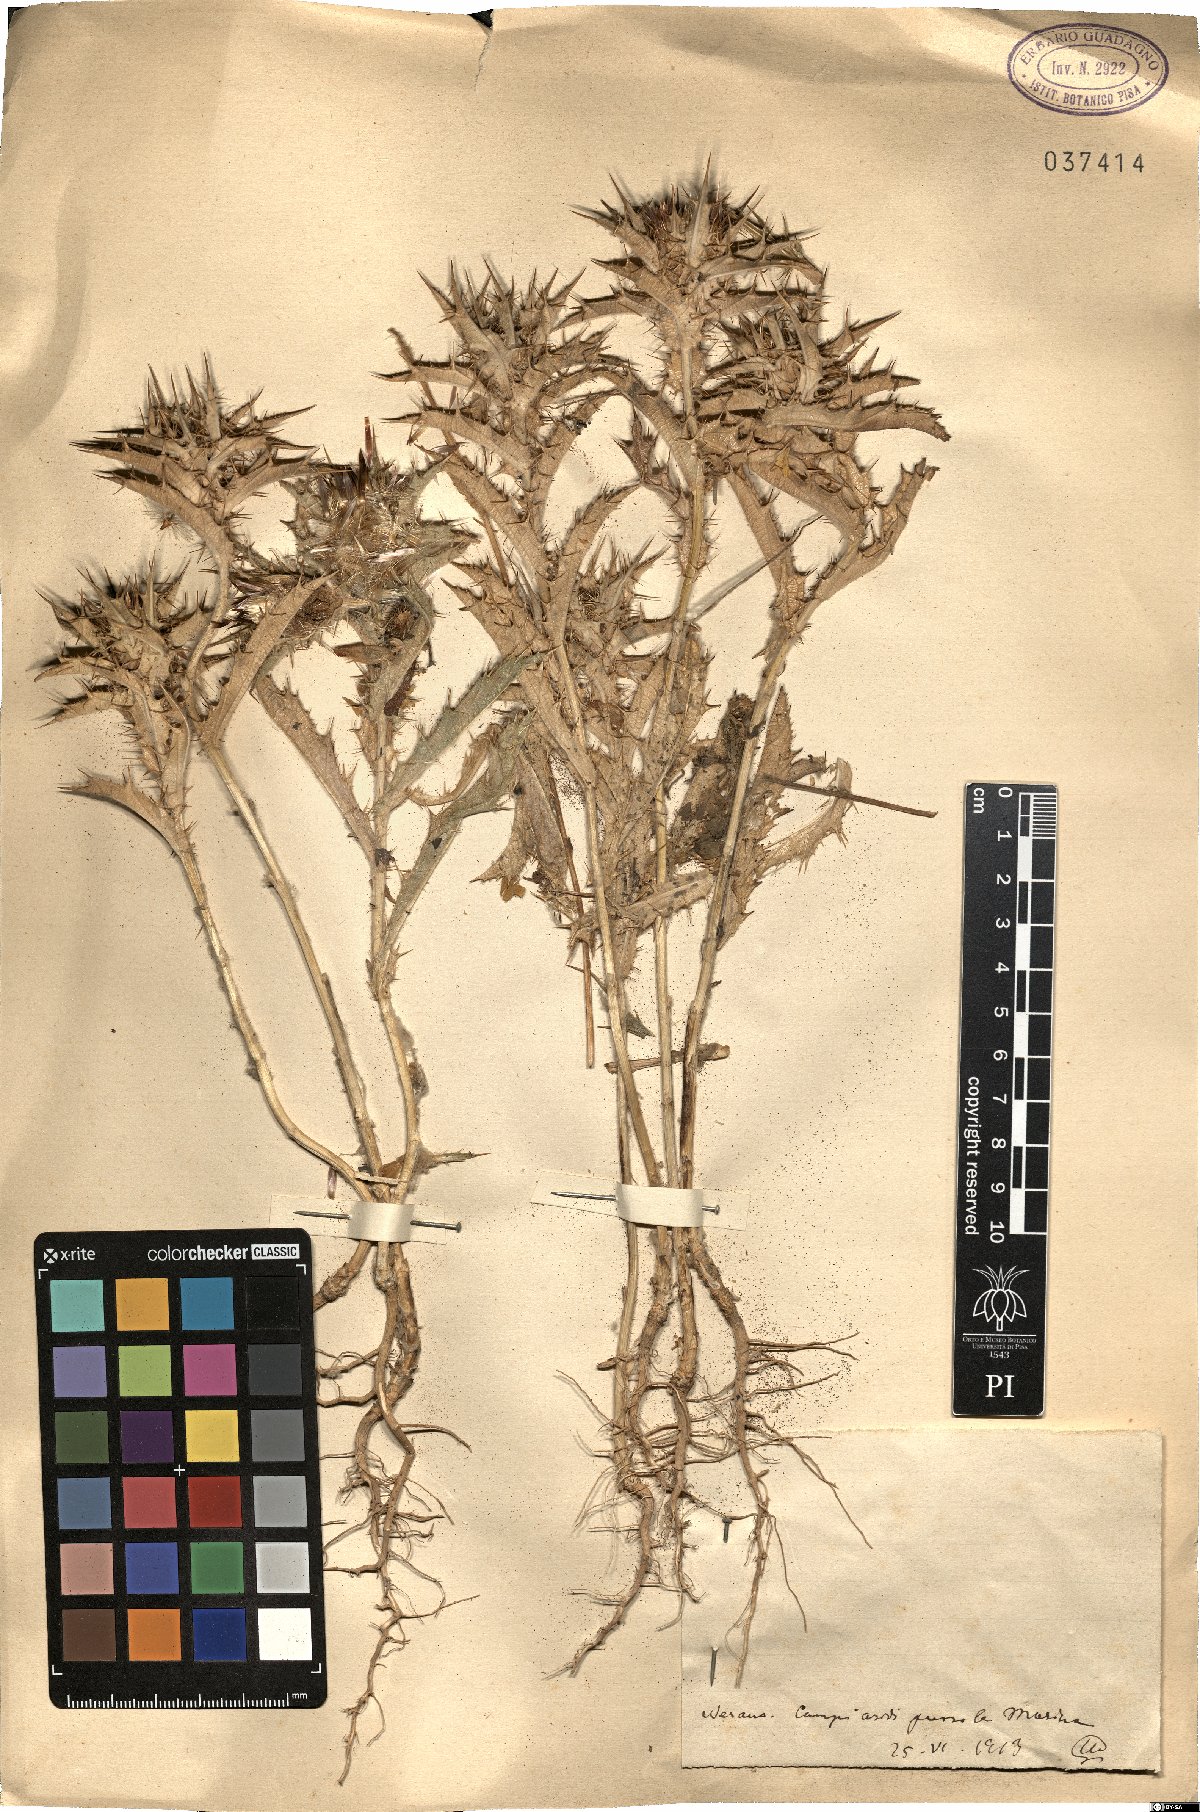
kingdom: Plantae
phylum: Tracheophyta
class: Magnoliopsida
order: Asterales
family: Asteraceae
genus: Carlina
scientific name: Carlina
